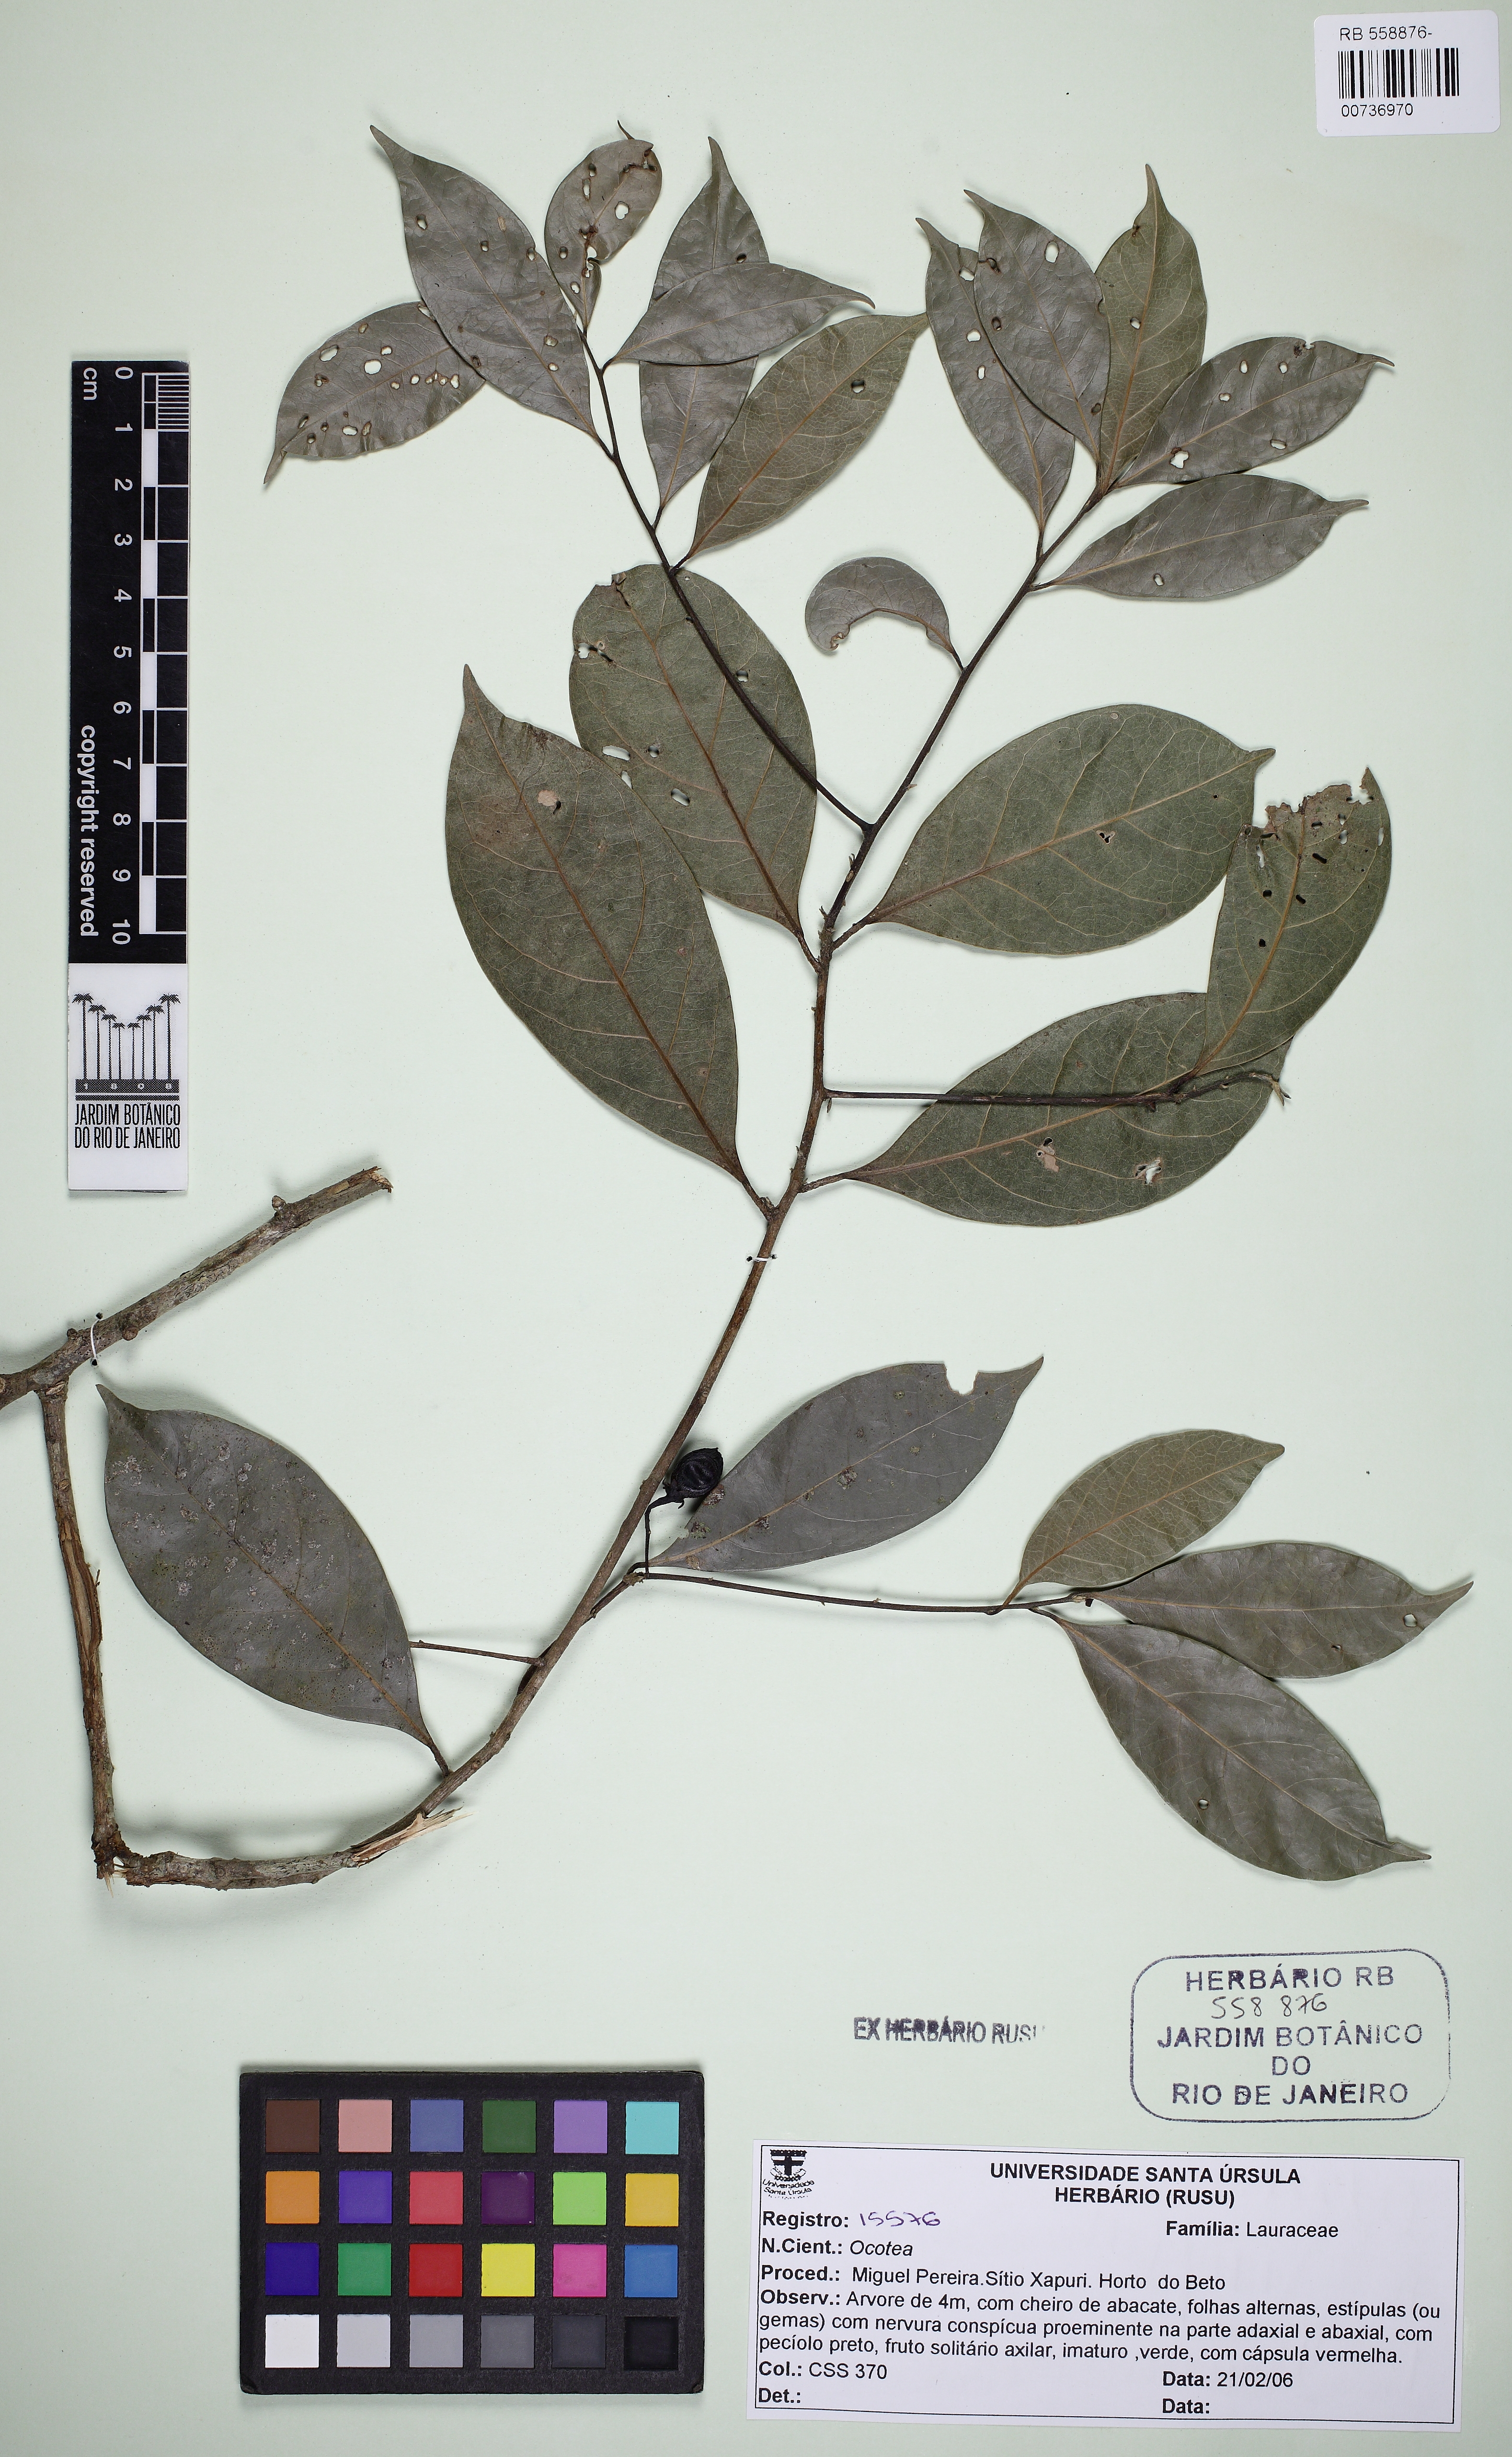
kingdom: Plantae
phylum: Tracheophyta
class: Magnoliopsida
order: Laurales
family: Lauraceae
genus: Ocotea
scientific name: Ocotea brachybotra
